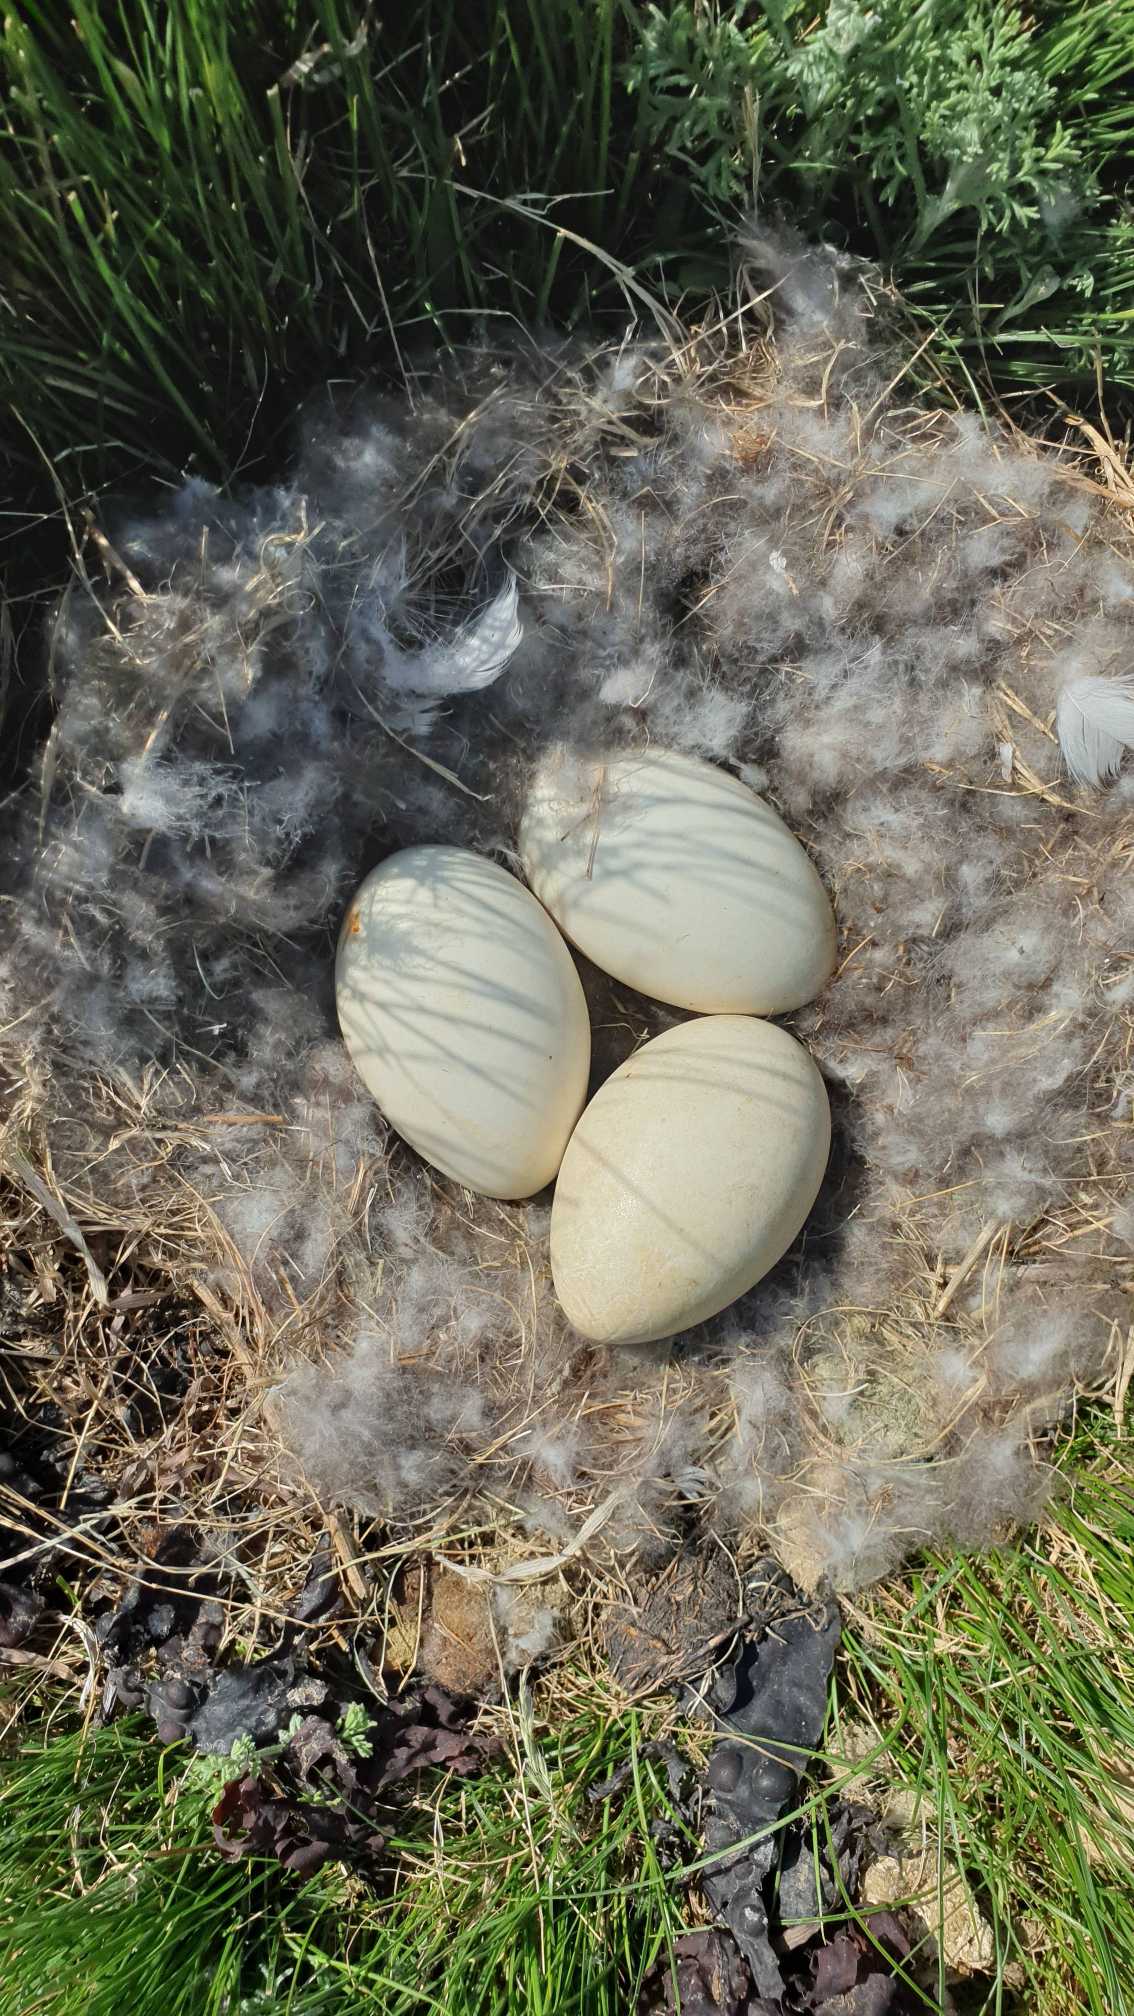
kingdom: Animalia
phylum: Chordata
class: Aves
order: Anseriformes
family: Anatidae
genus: Branta
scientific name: Branta leucopsis
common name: Bramgås
